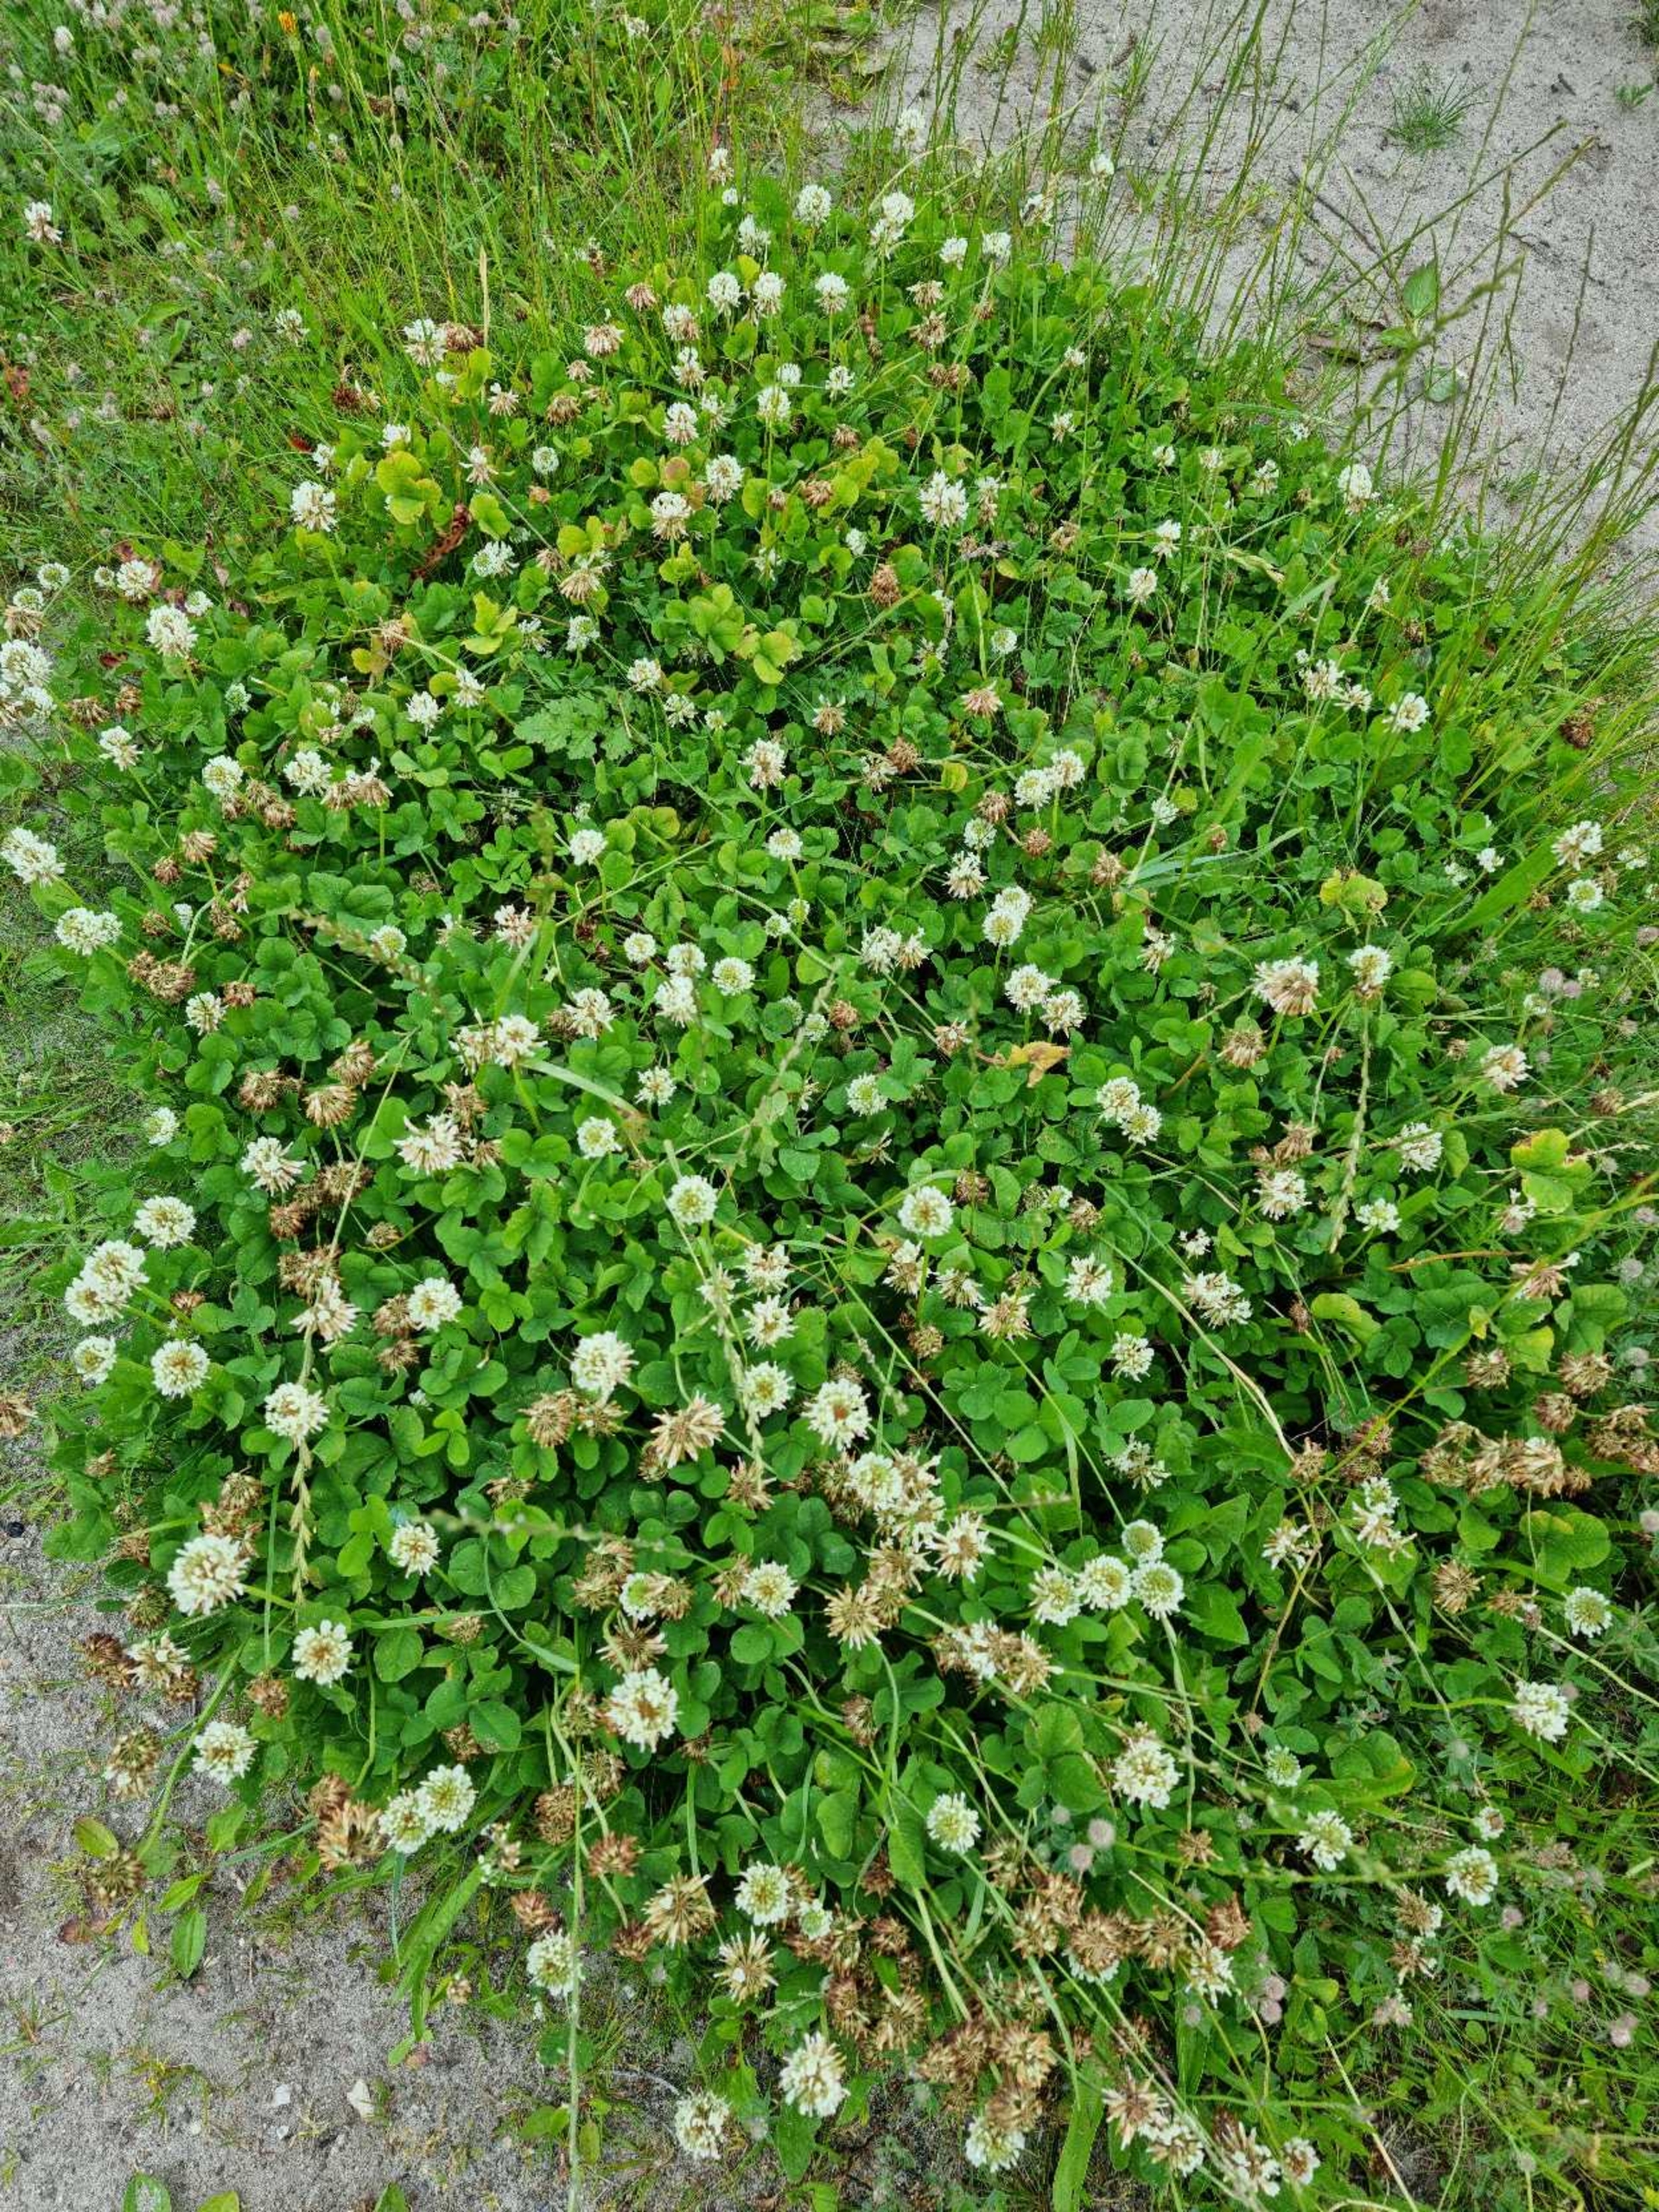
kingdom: Plantae
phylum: Tracheophyta
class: Magnoliopsida
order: Fabales
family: Fabaceae
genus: Trifolium
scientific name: Trifolium repens
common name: Hvid-kløver
